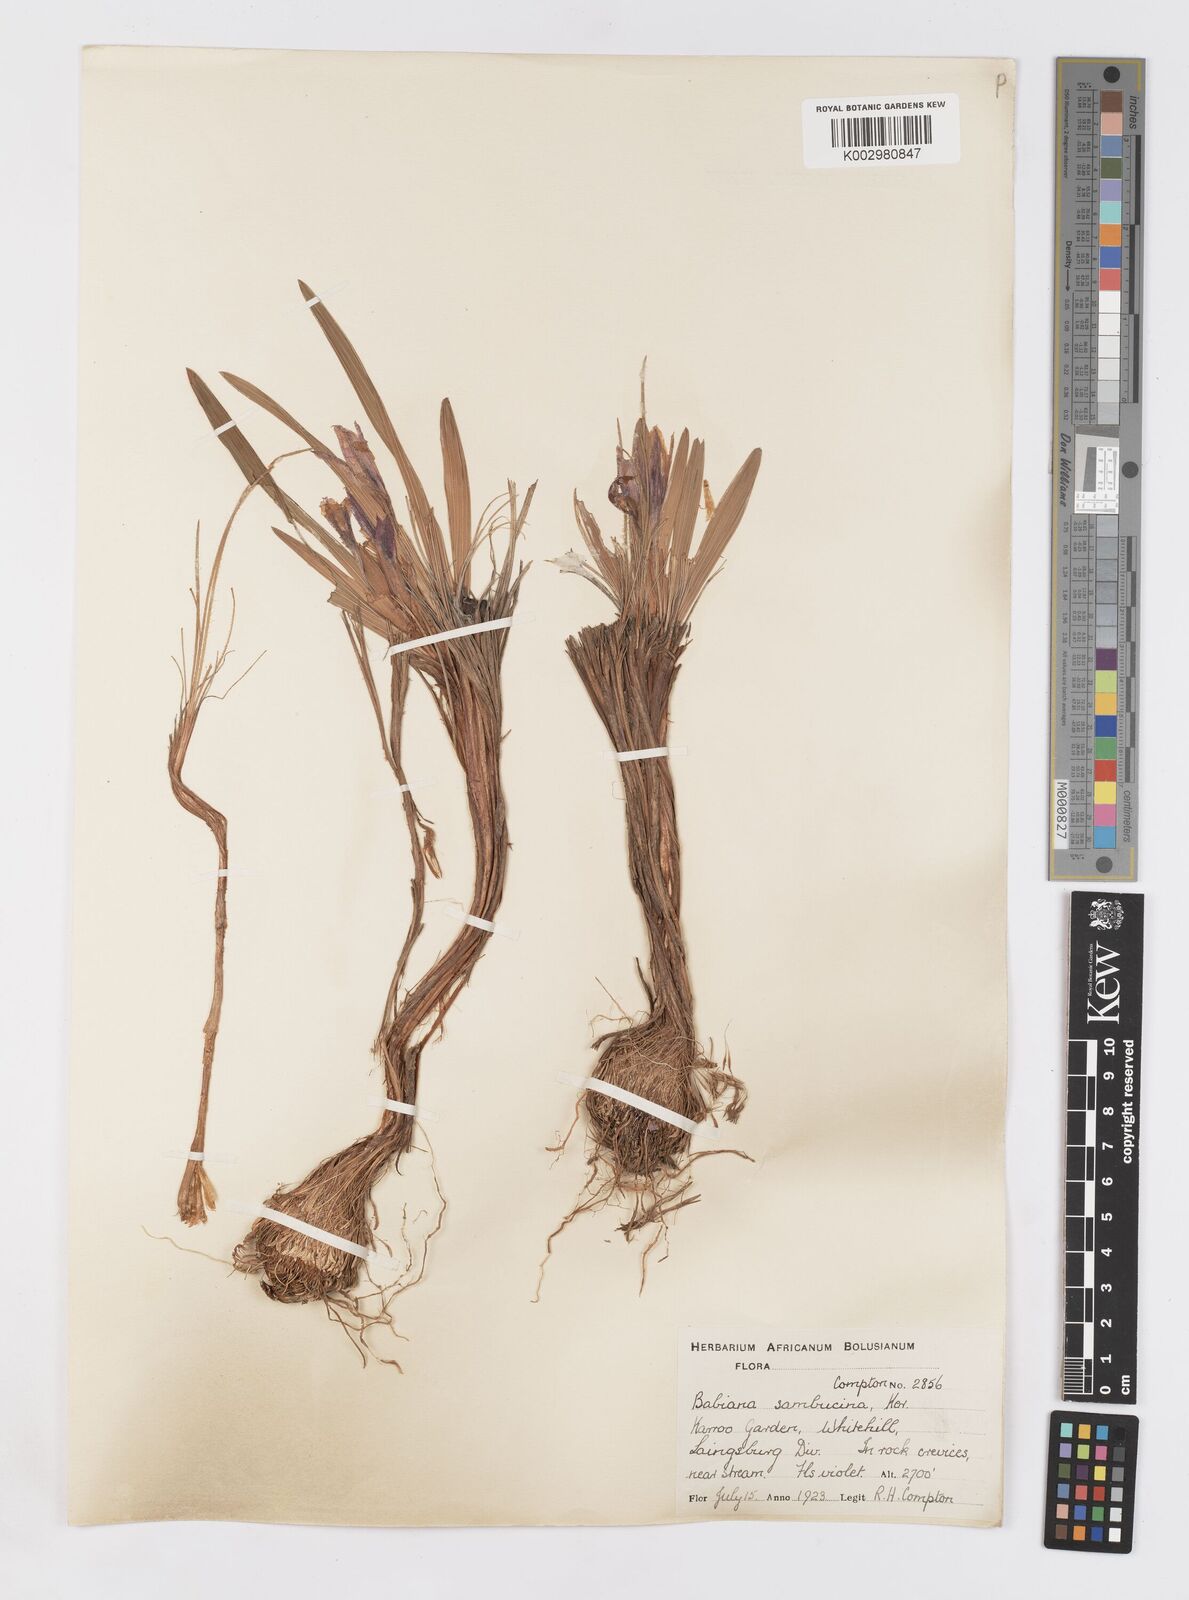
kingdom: Plantae
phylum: Tracheophyta
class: Liliopsida
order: Asparagales
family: Iridaceae
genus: Babiana
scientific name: Babiana sambucina
